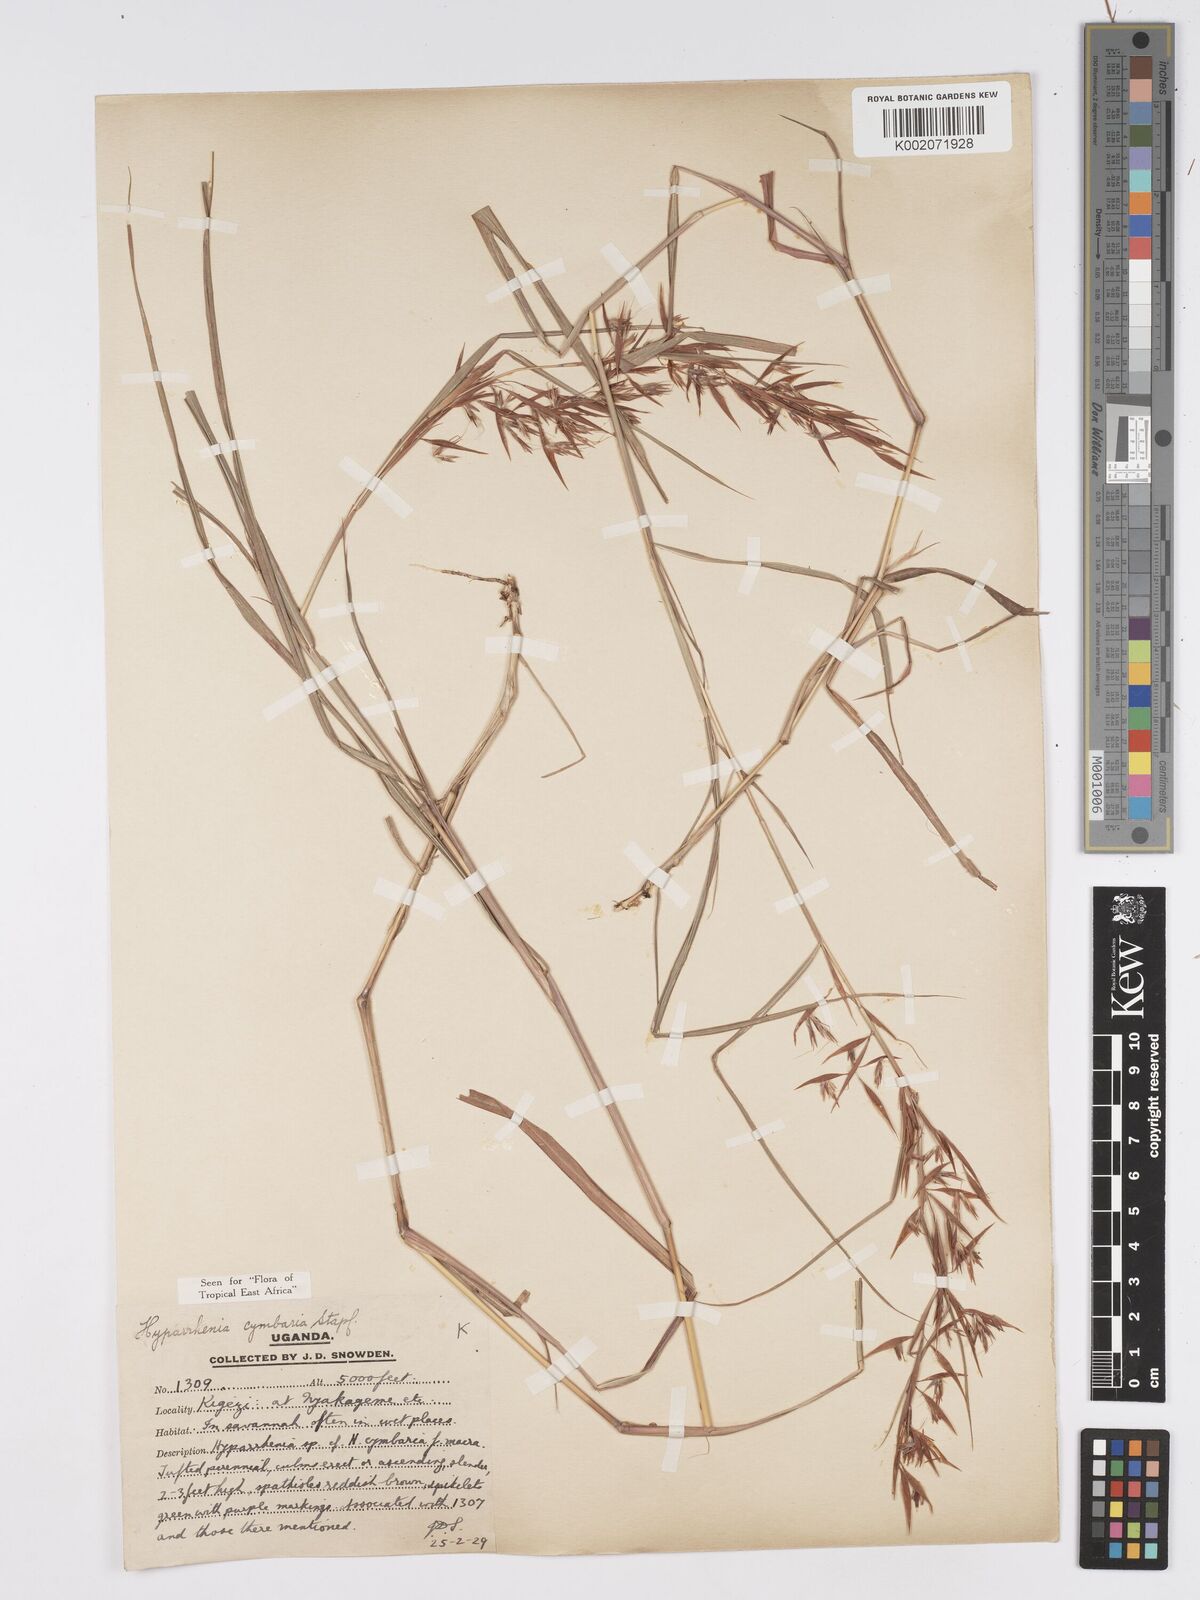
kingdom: Plantae
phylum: Tracheophyta
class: Liliopsida
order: Poales
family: Poaceae
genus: Hyparrhenia
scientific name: Hyparrhenia cymbaria
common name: Boat thatching grass
